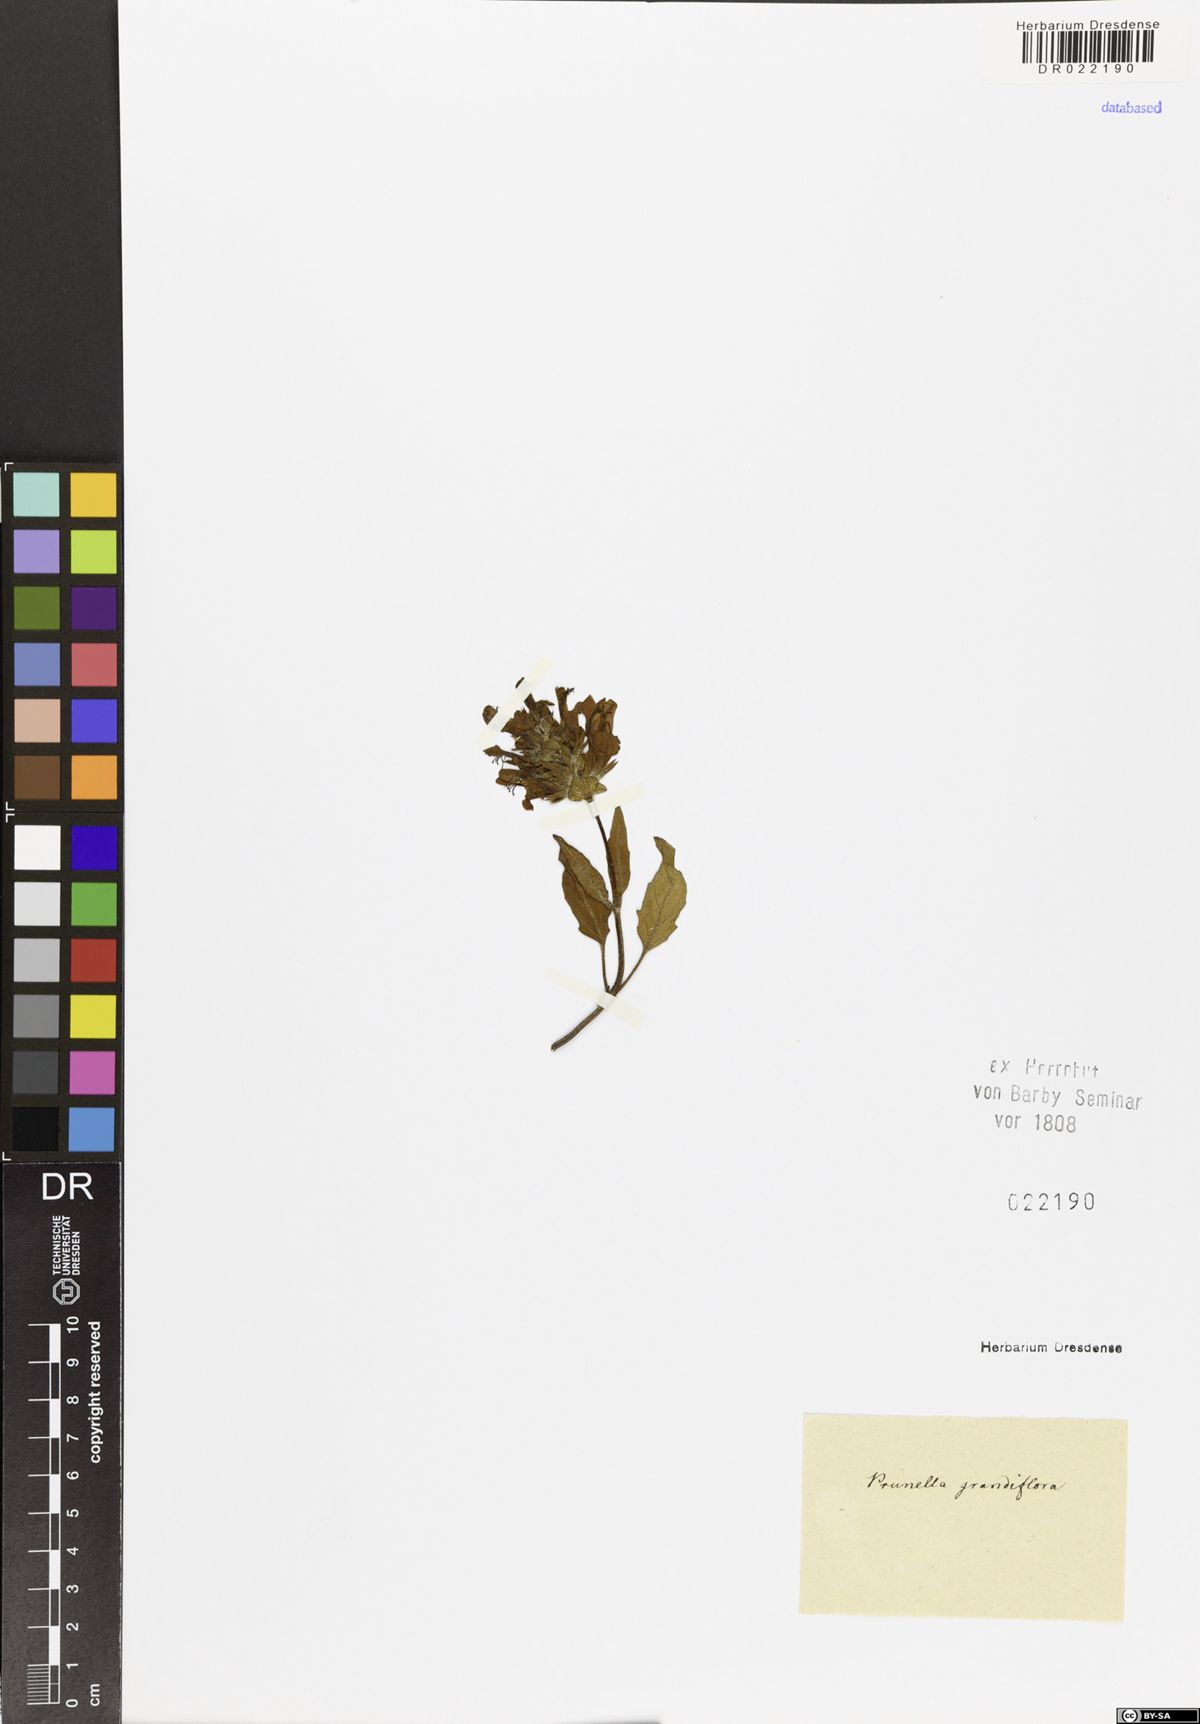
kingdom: Plantae
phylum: Tracheophyta
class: Magnoliopsida
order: Lamiales
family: Lamiaceae
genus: Prunella
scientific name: Prunella grandiflora
